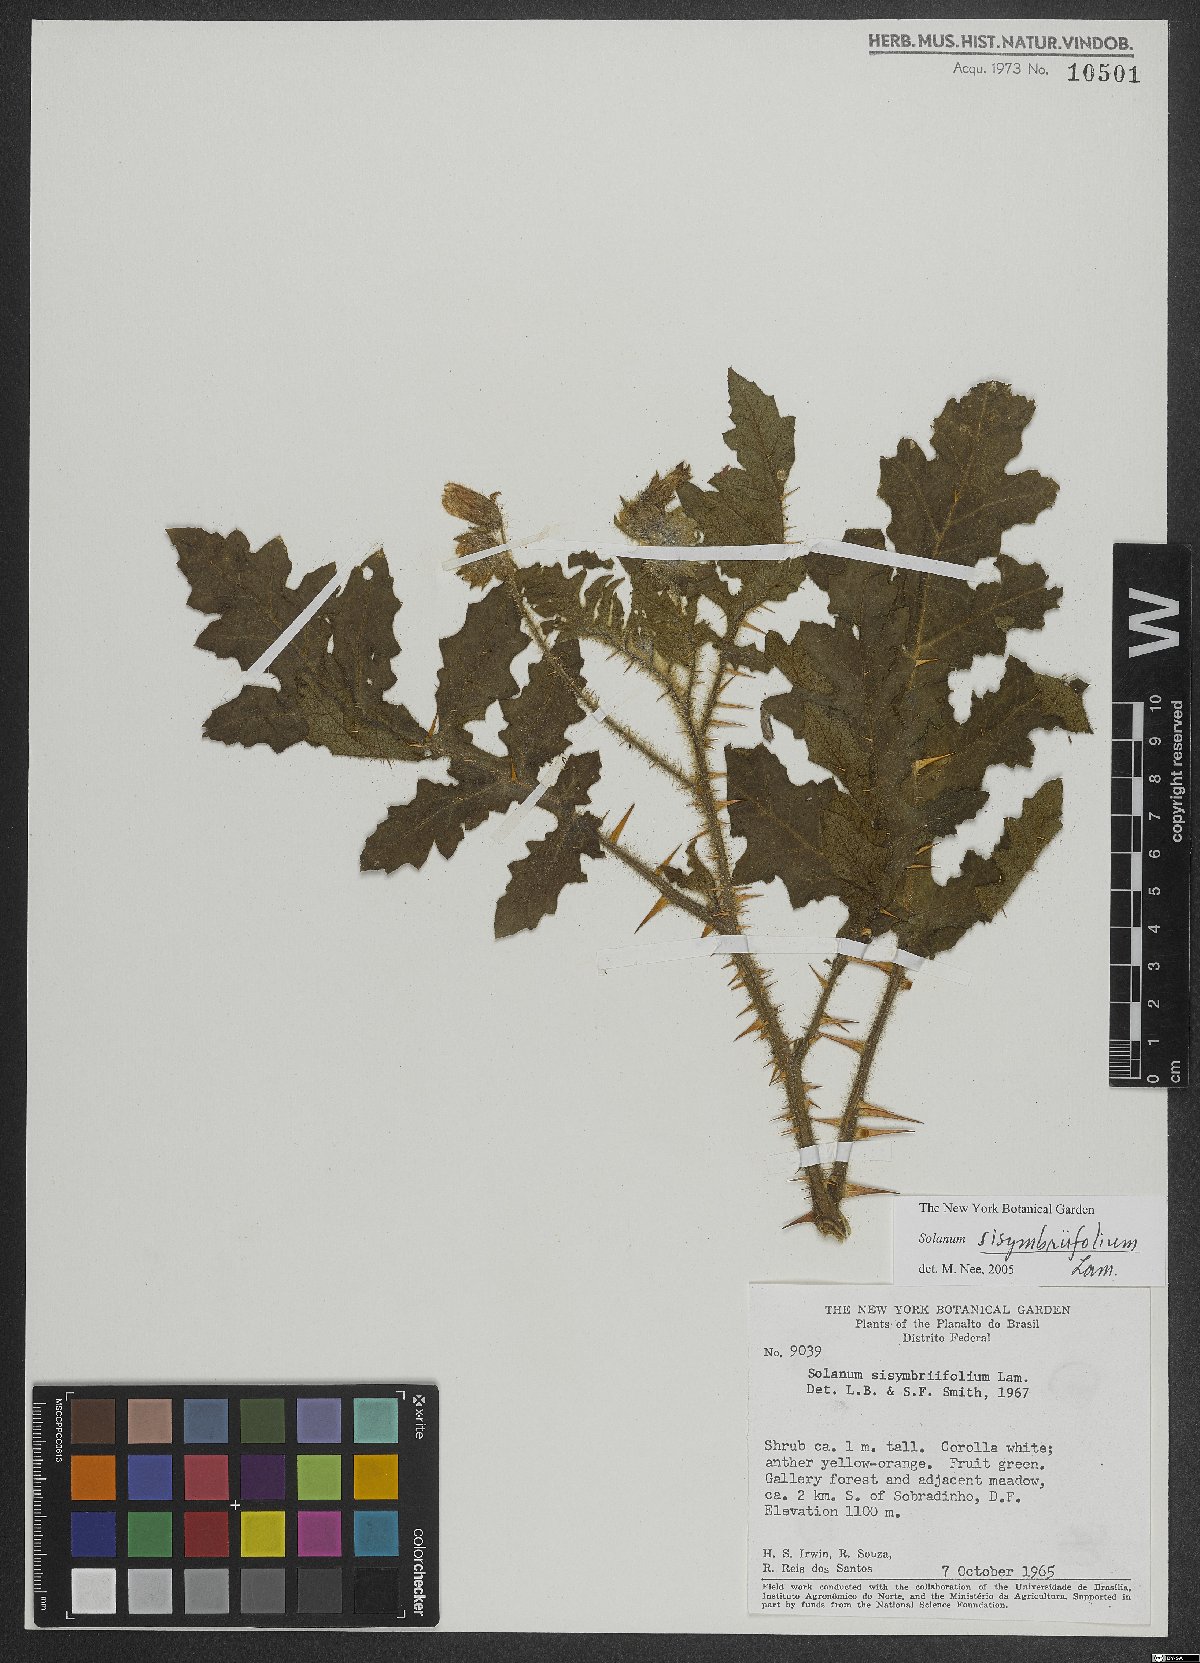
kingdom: Plantae
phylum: Tracheophyta
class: Magnoliopsida
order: Solanales
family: Solanaceae
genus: Solanum
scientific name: Solanum sisymbriifolium
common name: Red buffalo-bur
